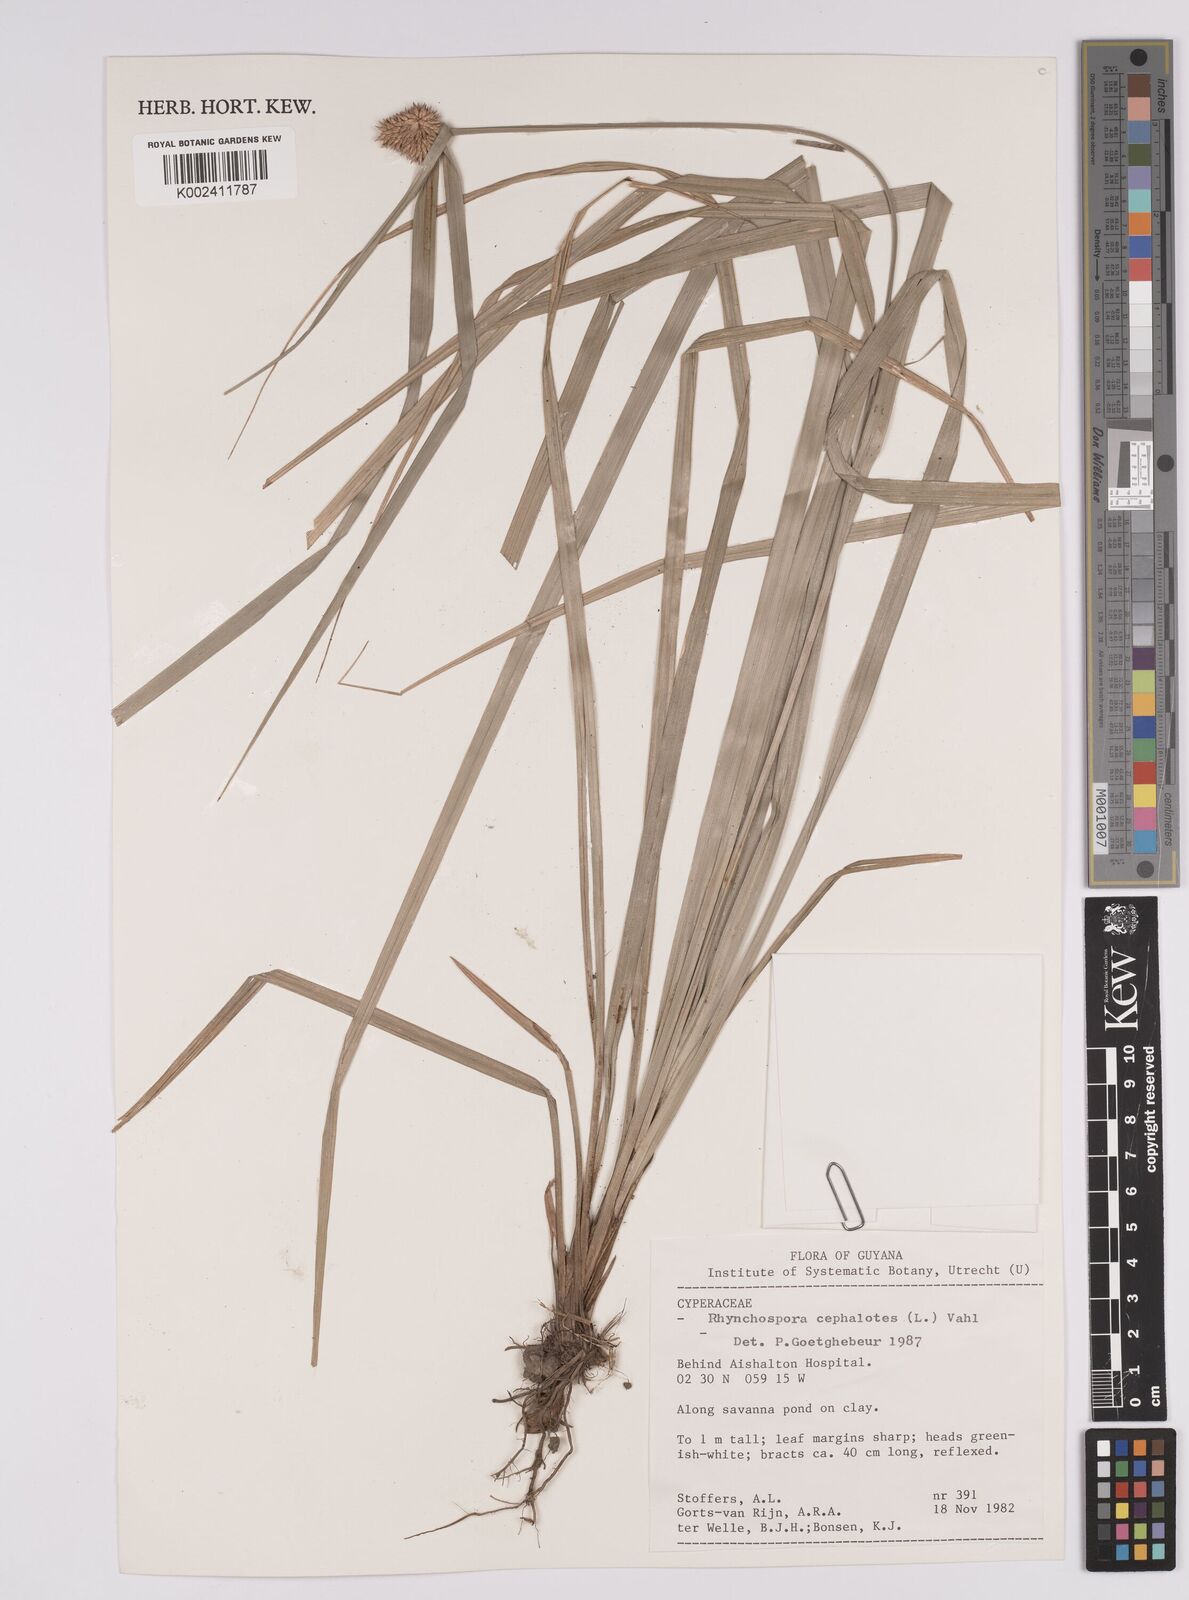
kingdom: Plantae
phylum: Tracheophyta
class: Liliopsida
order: Poales
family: Cyperaceae
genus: Rhynchospora
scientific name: Rhynchospora cephalotes
